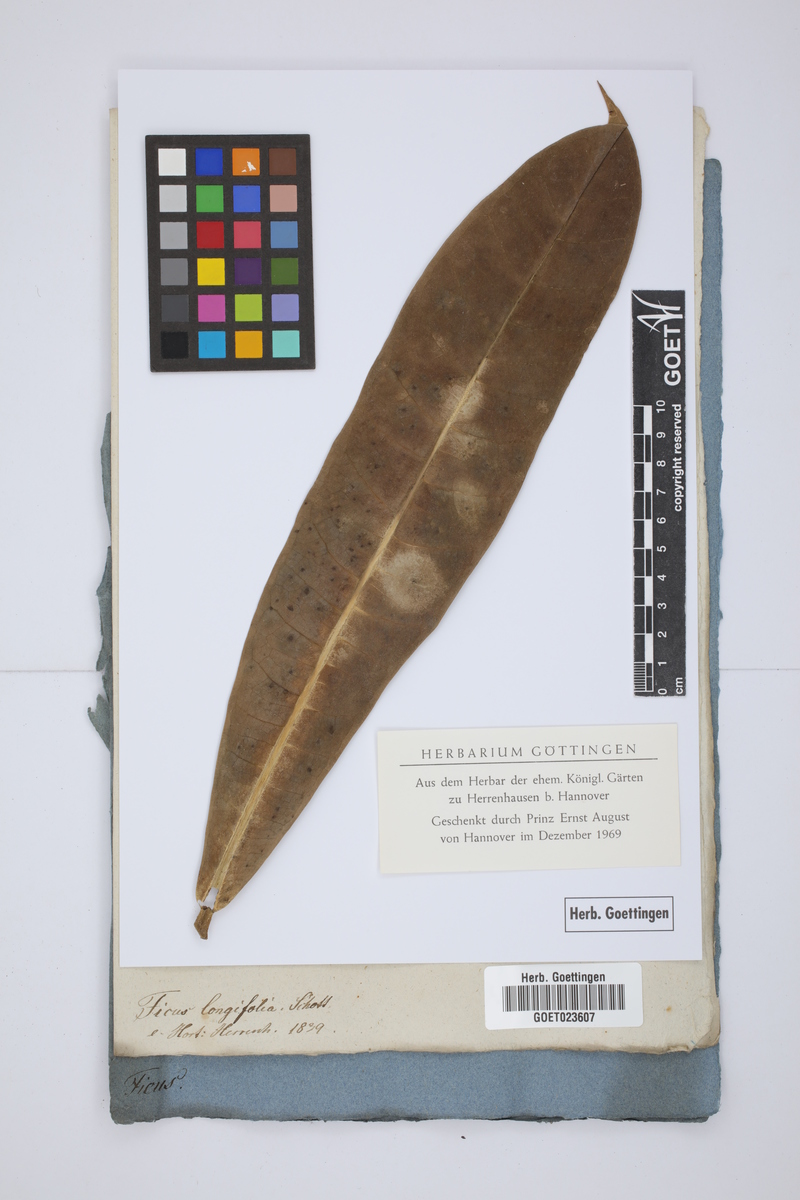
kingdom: Plantae
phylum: Tracheophyta
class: Magnoliopsida
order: Rosales
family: Moraceae
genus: Ficus
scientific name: Ficus longifolia
